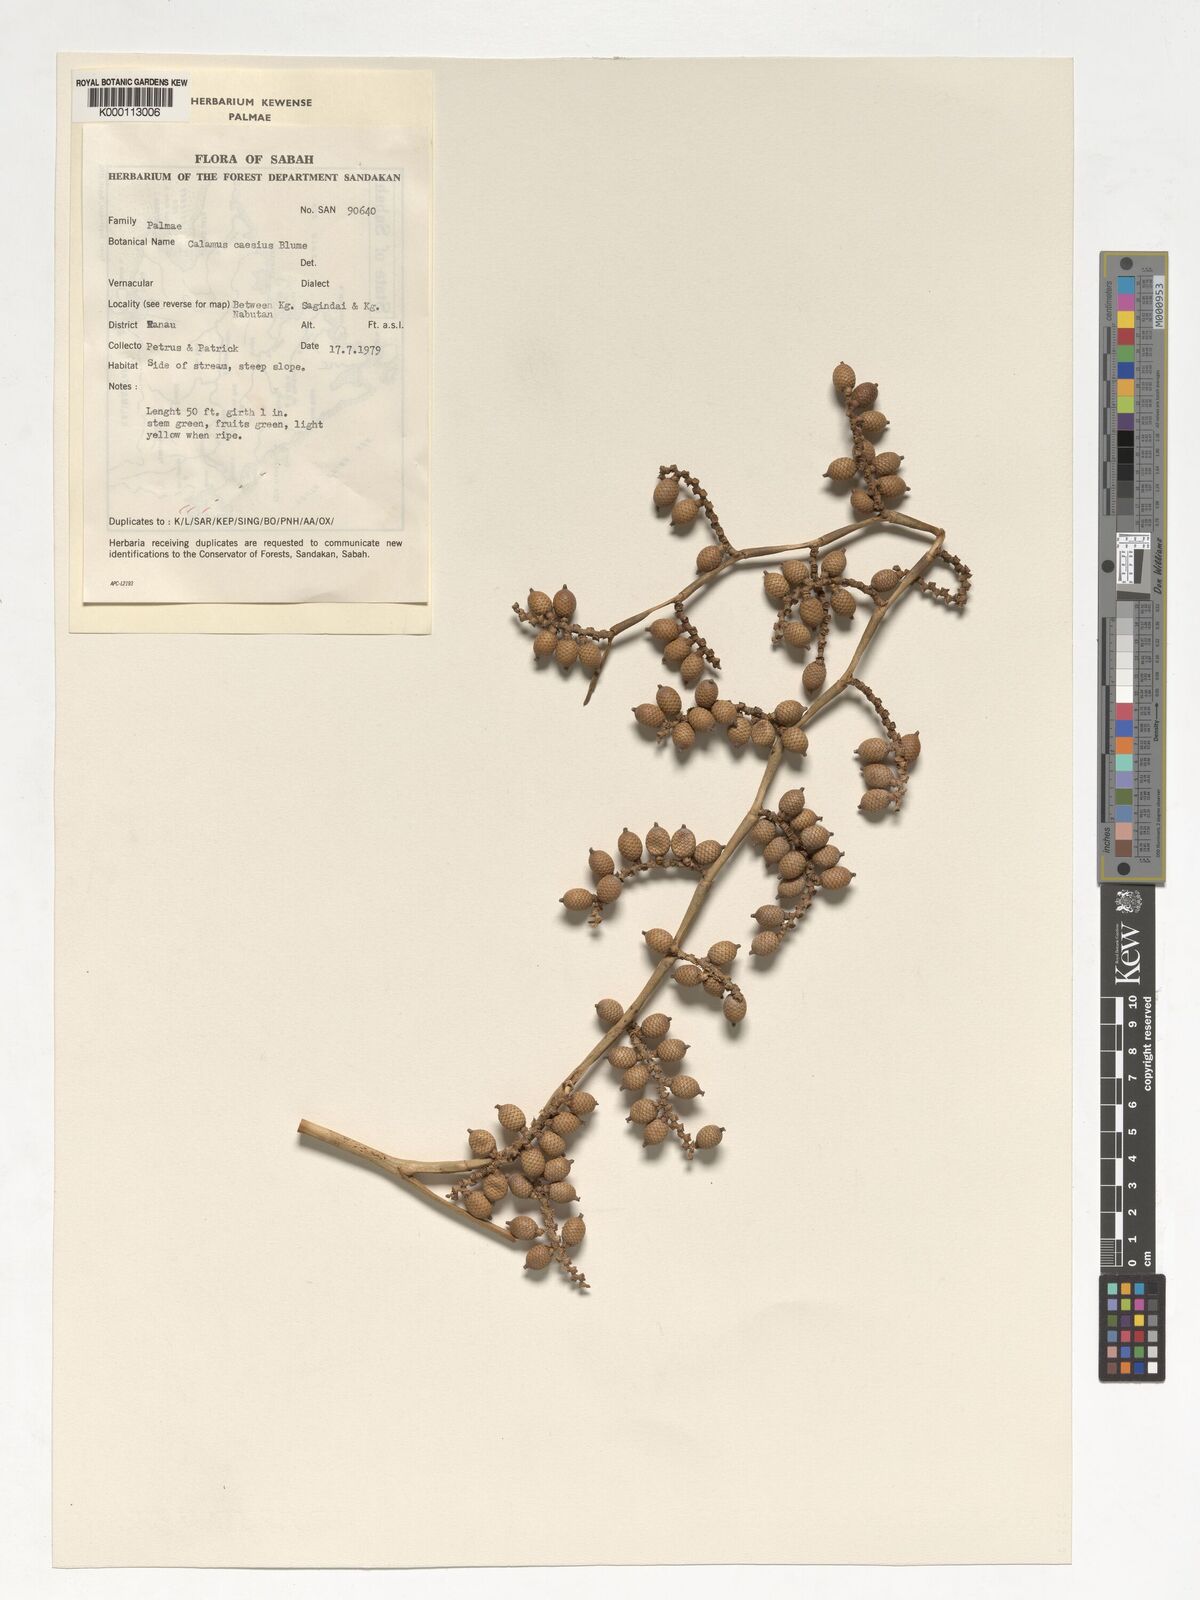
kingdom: Plantae
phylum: Tracheophyta
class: Liliopsida
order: Arecales
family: Arecaceae
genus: Calamus
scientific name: Calamus caesius
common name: Rattan palm
